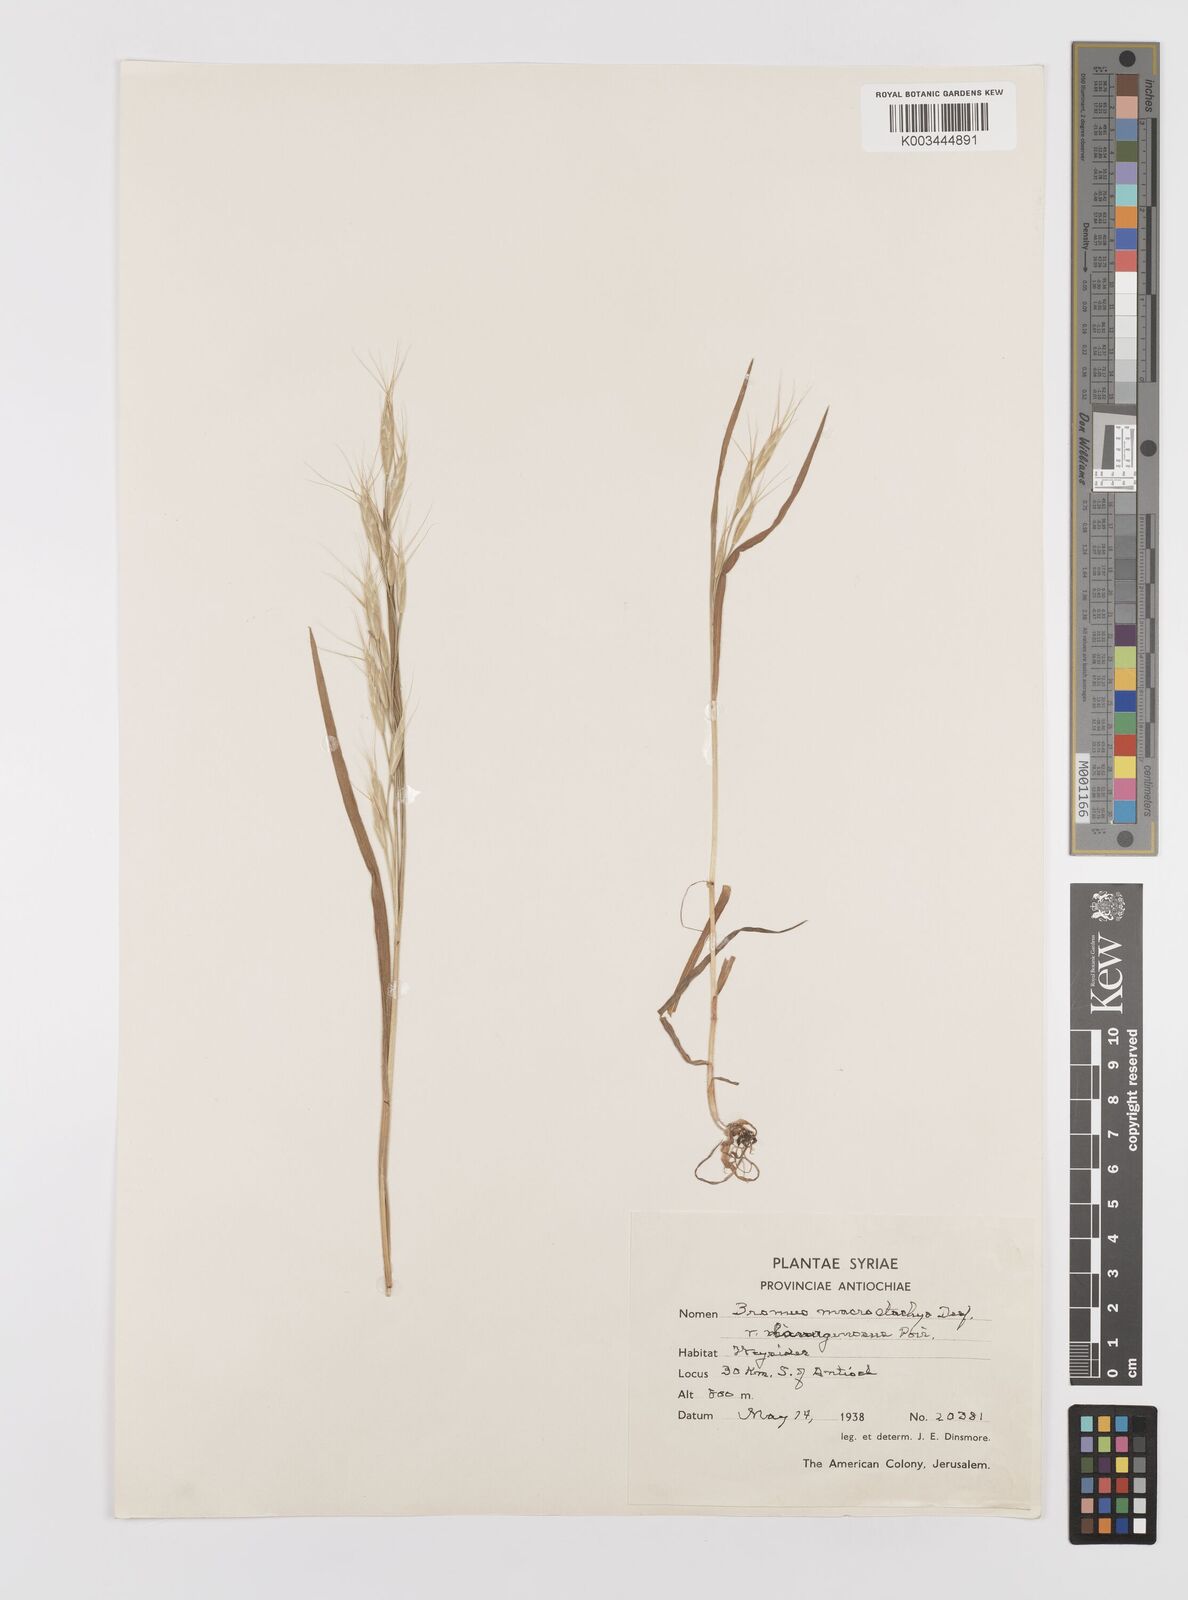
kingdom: Plantae
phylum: Tracheophyta
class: Liliopsida
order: Poales
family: Poaceae
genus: Bromus
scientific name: Bromus lanceolatus
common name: Mediterranean brome
